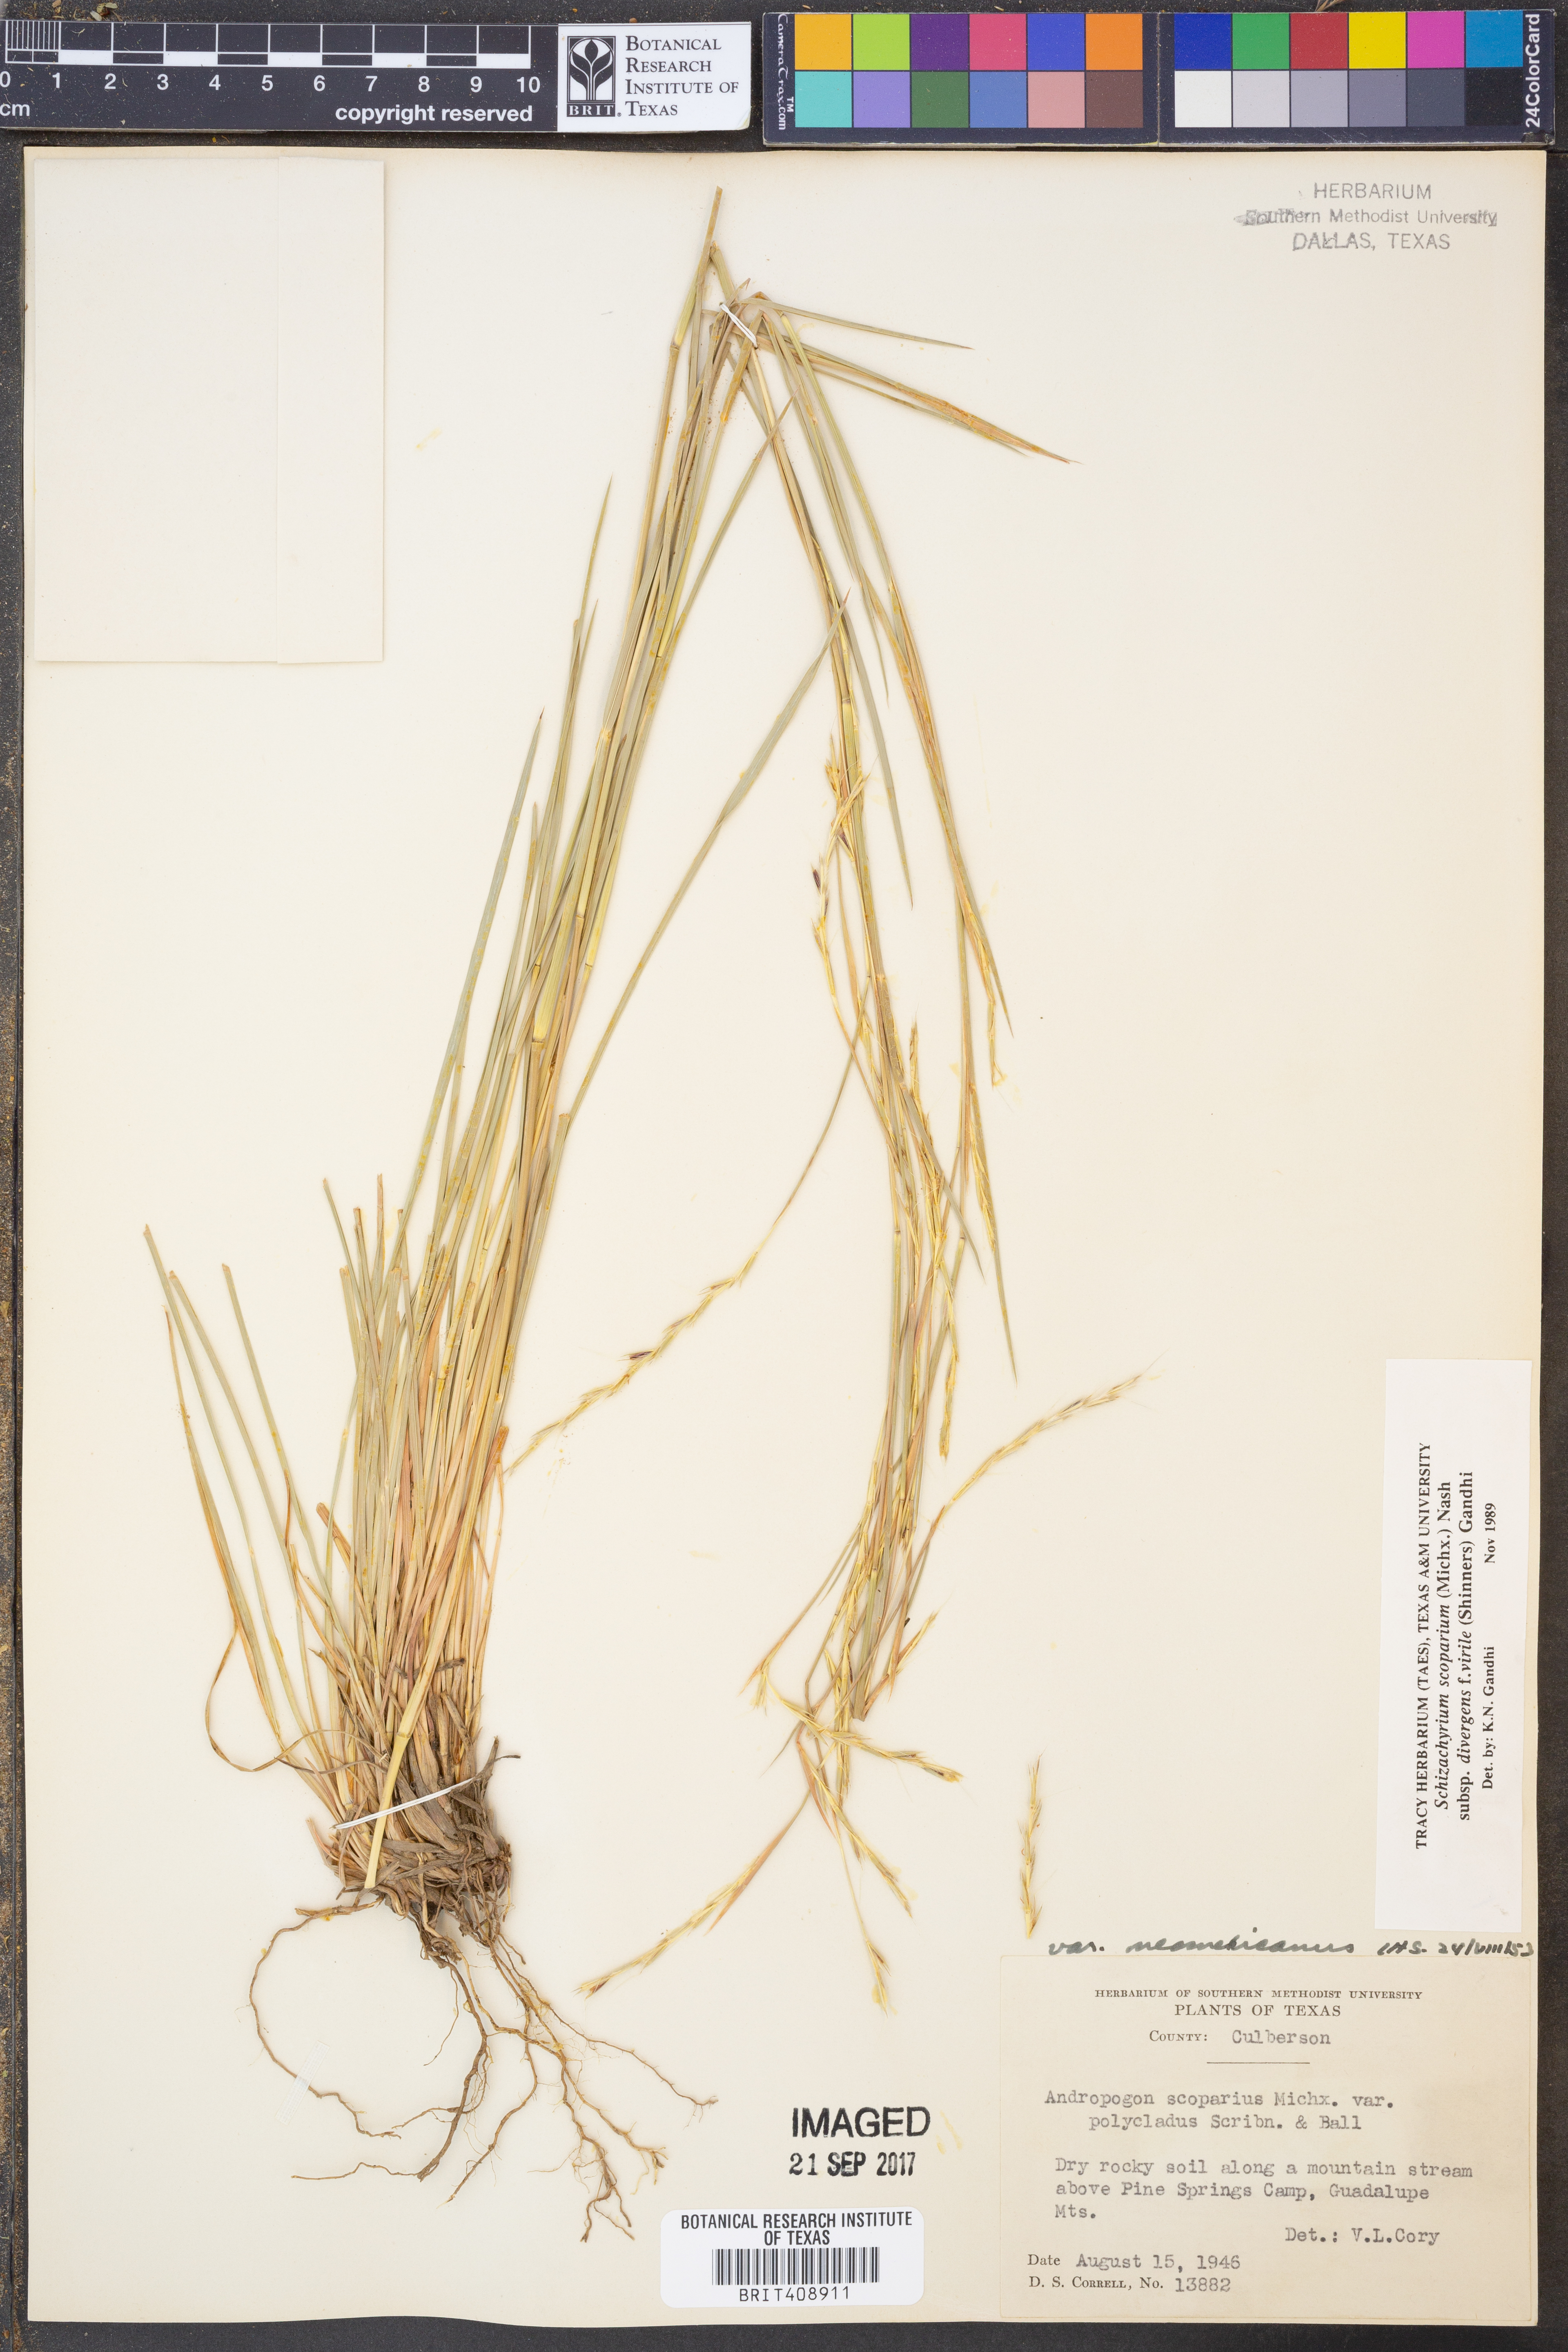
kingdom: Plantae
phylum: Tracheophyta
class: Liliopsida
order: Poales
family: Poaceae
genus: Schizachyrium
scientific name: Schizachyrium scoparium
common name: Little bluestem
